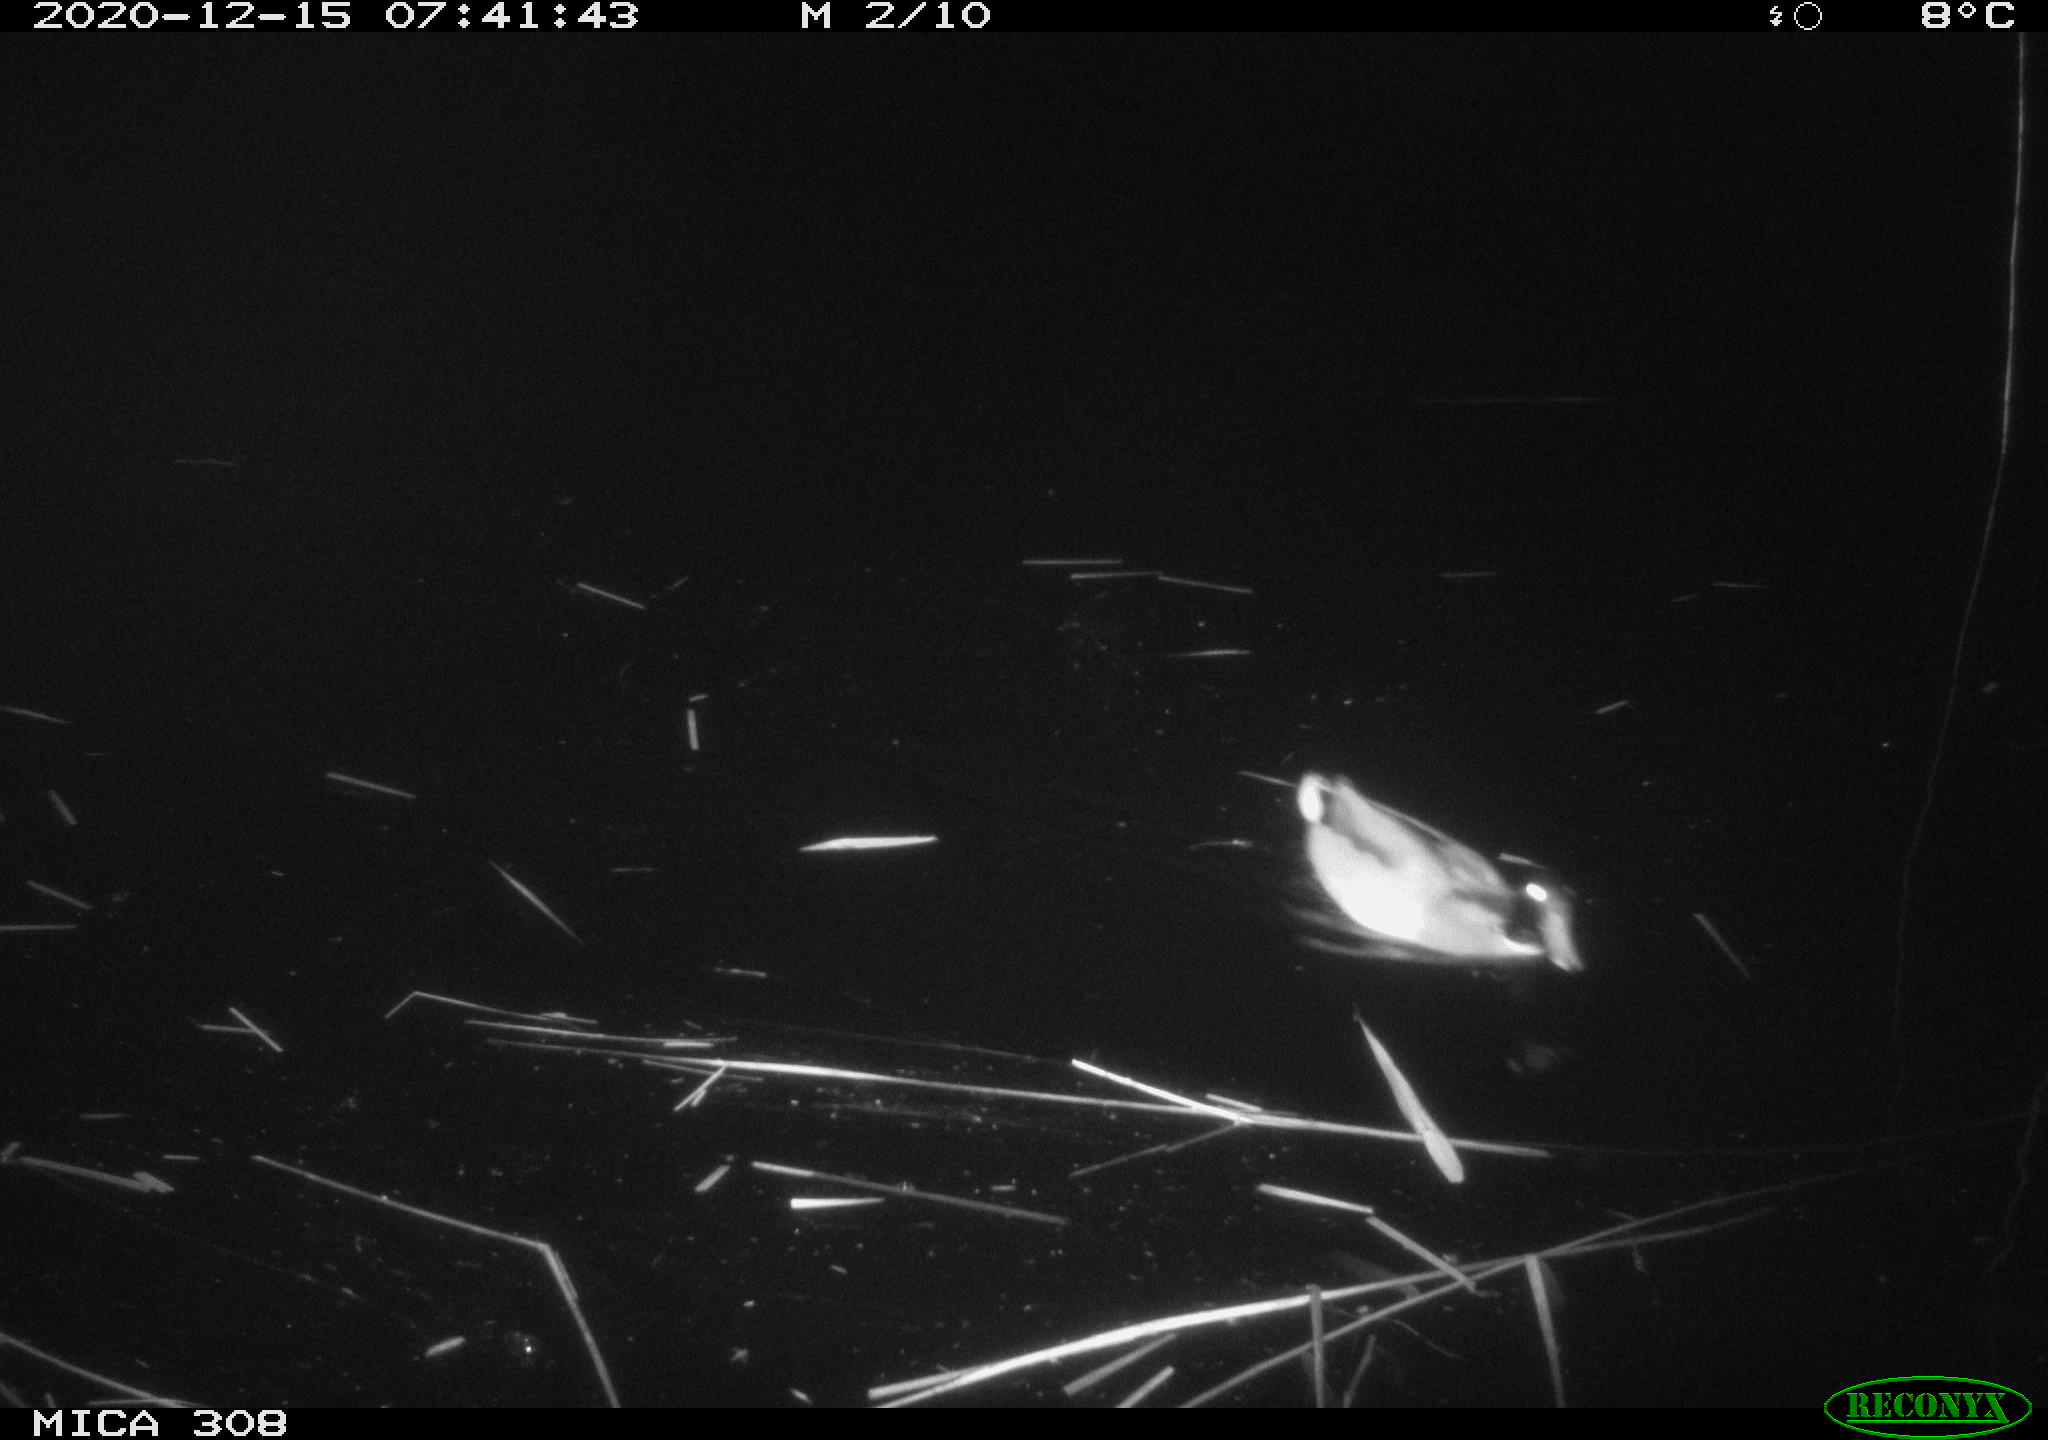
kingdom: Animalia
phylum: Chordata
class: Aves
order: Gruiformes
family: Rallidae
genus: Gallinula
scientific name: Gallinula chloropus
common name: Common moorhen
